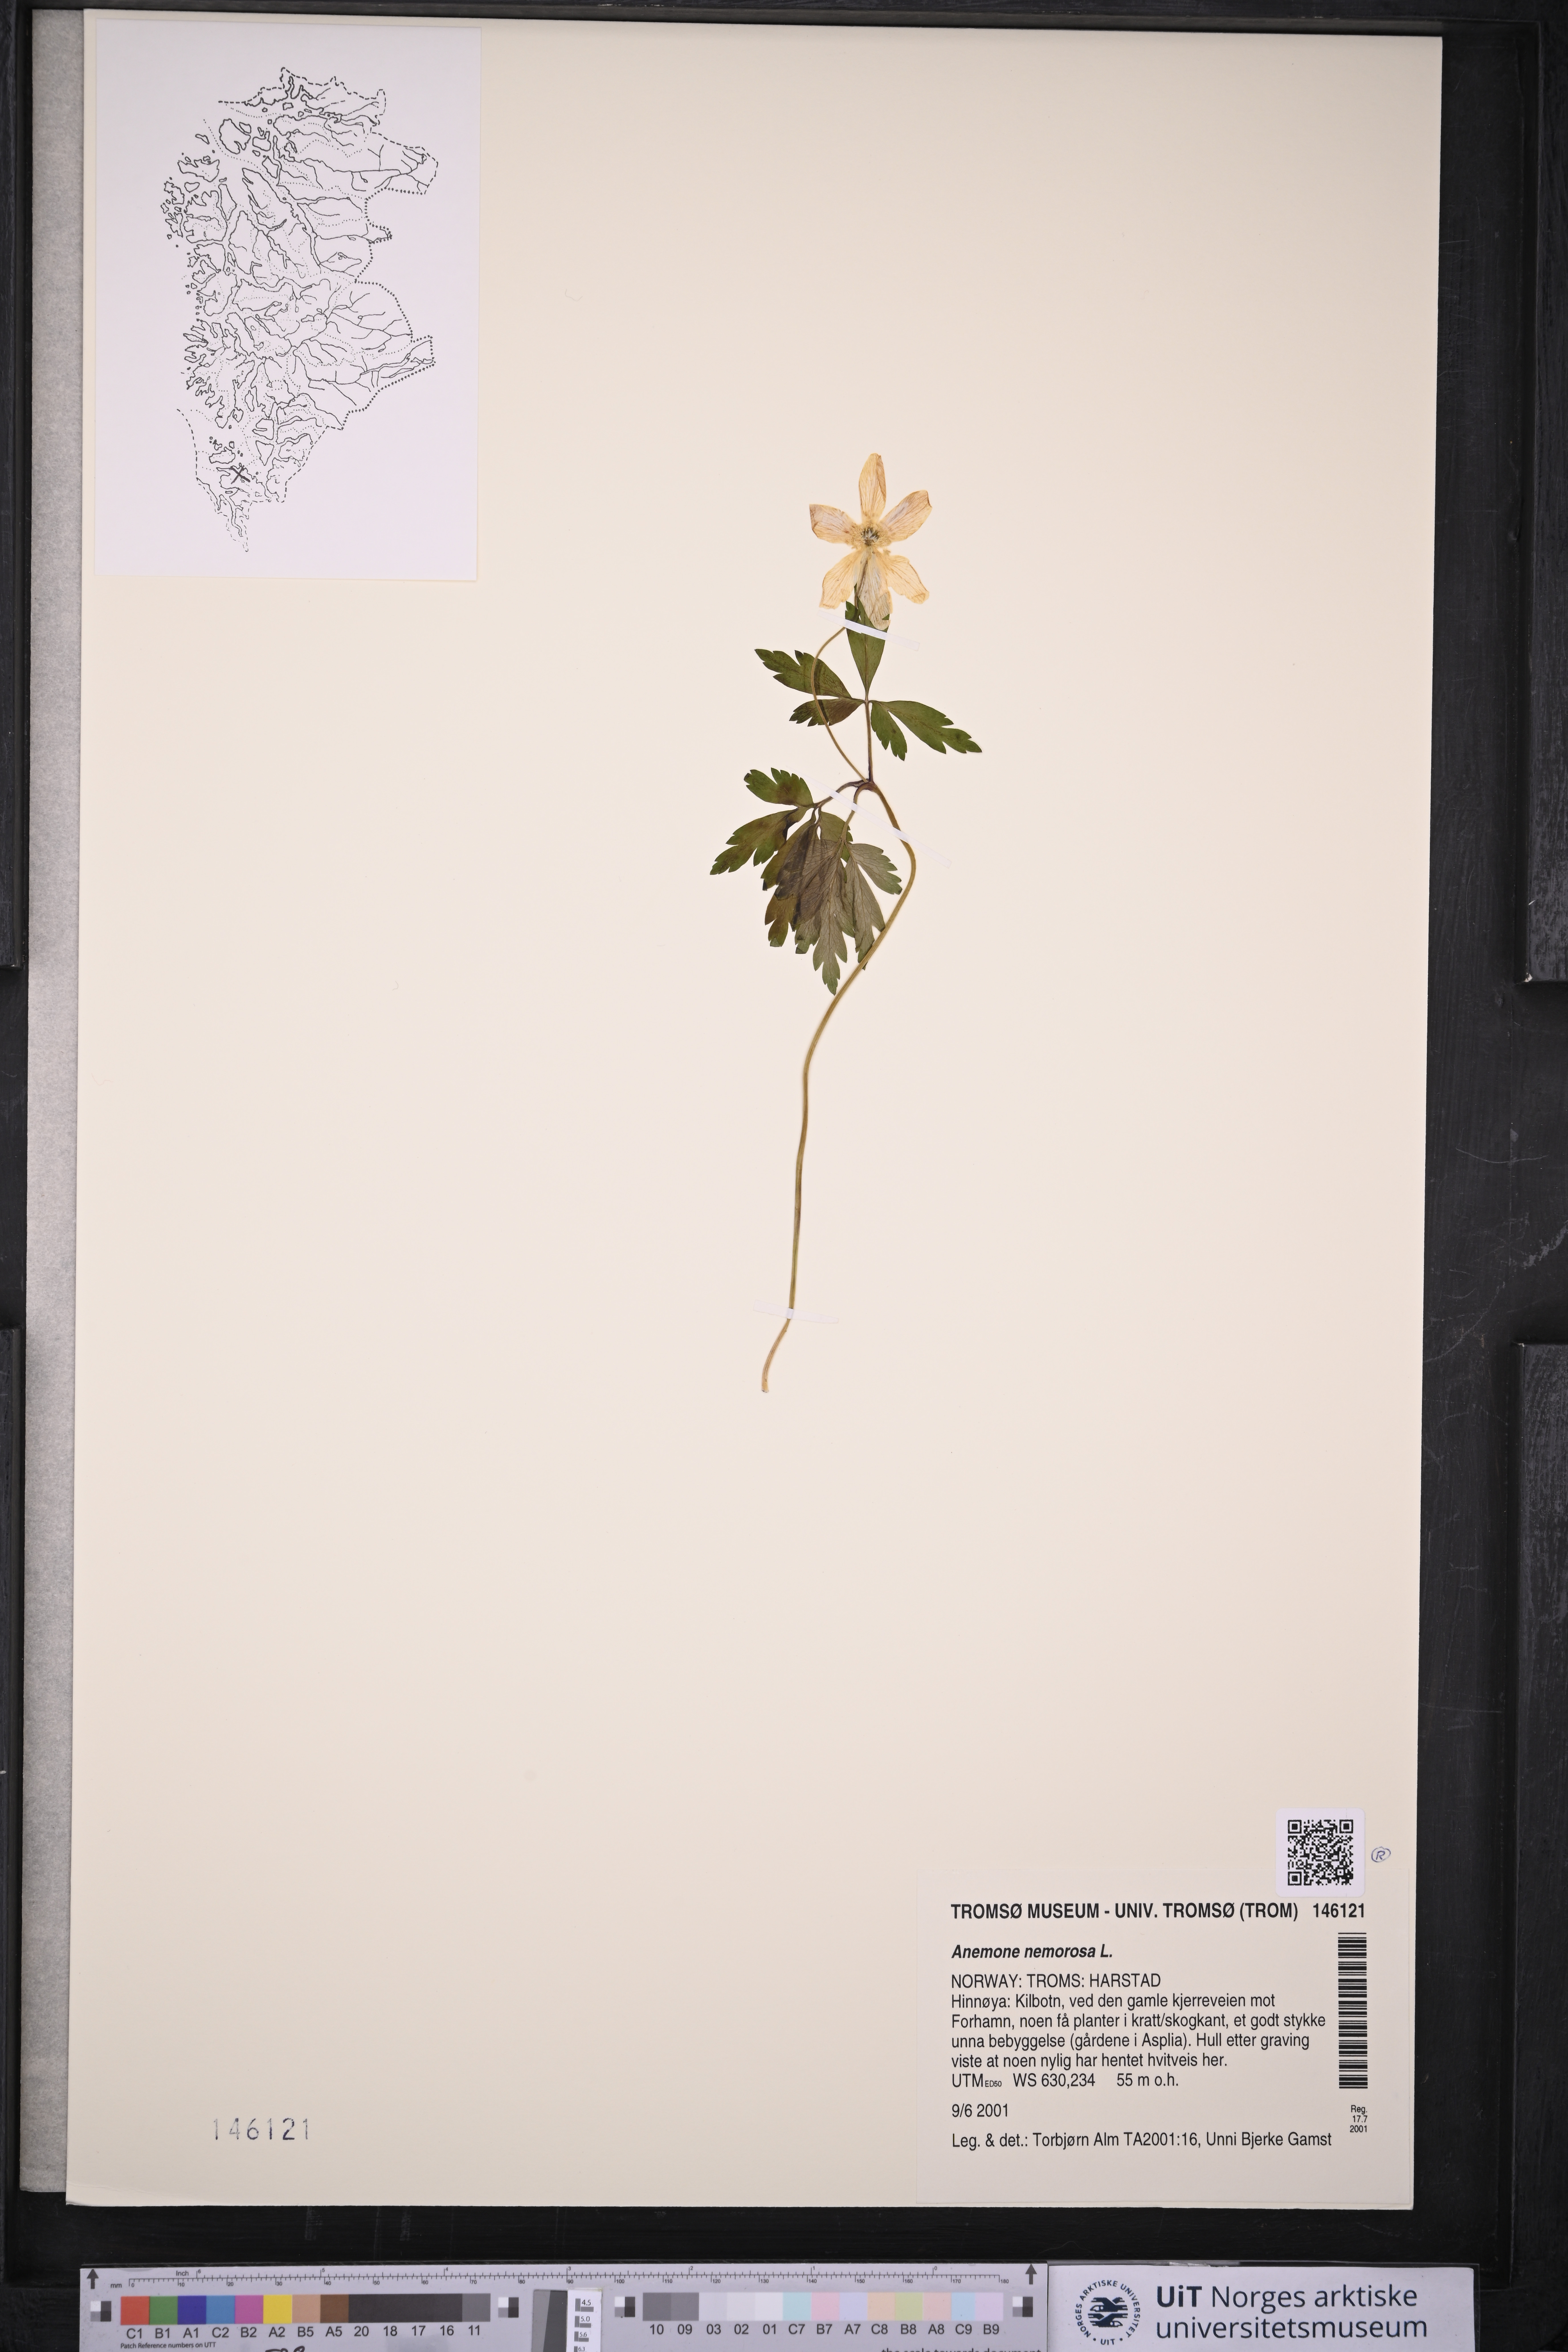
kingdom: Plantae
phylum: Tracheophyta
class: Magnoliopsida
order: Ranunculales
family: Ranunculaceae
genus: Anemone
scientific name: Anemone nemorosa
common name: Wood anemone
